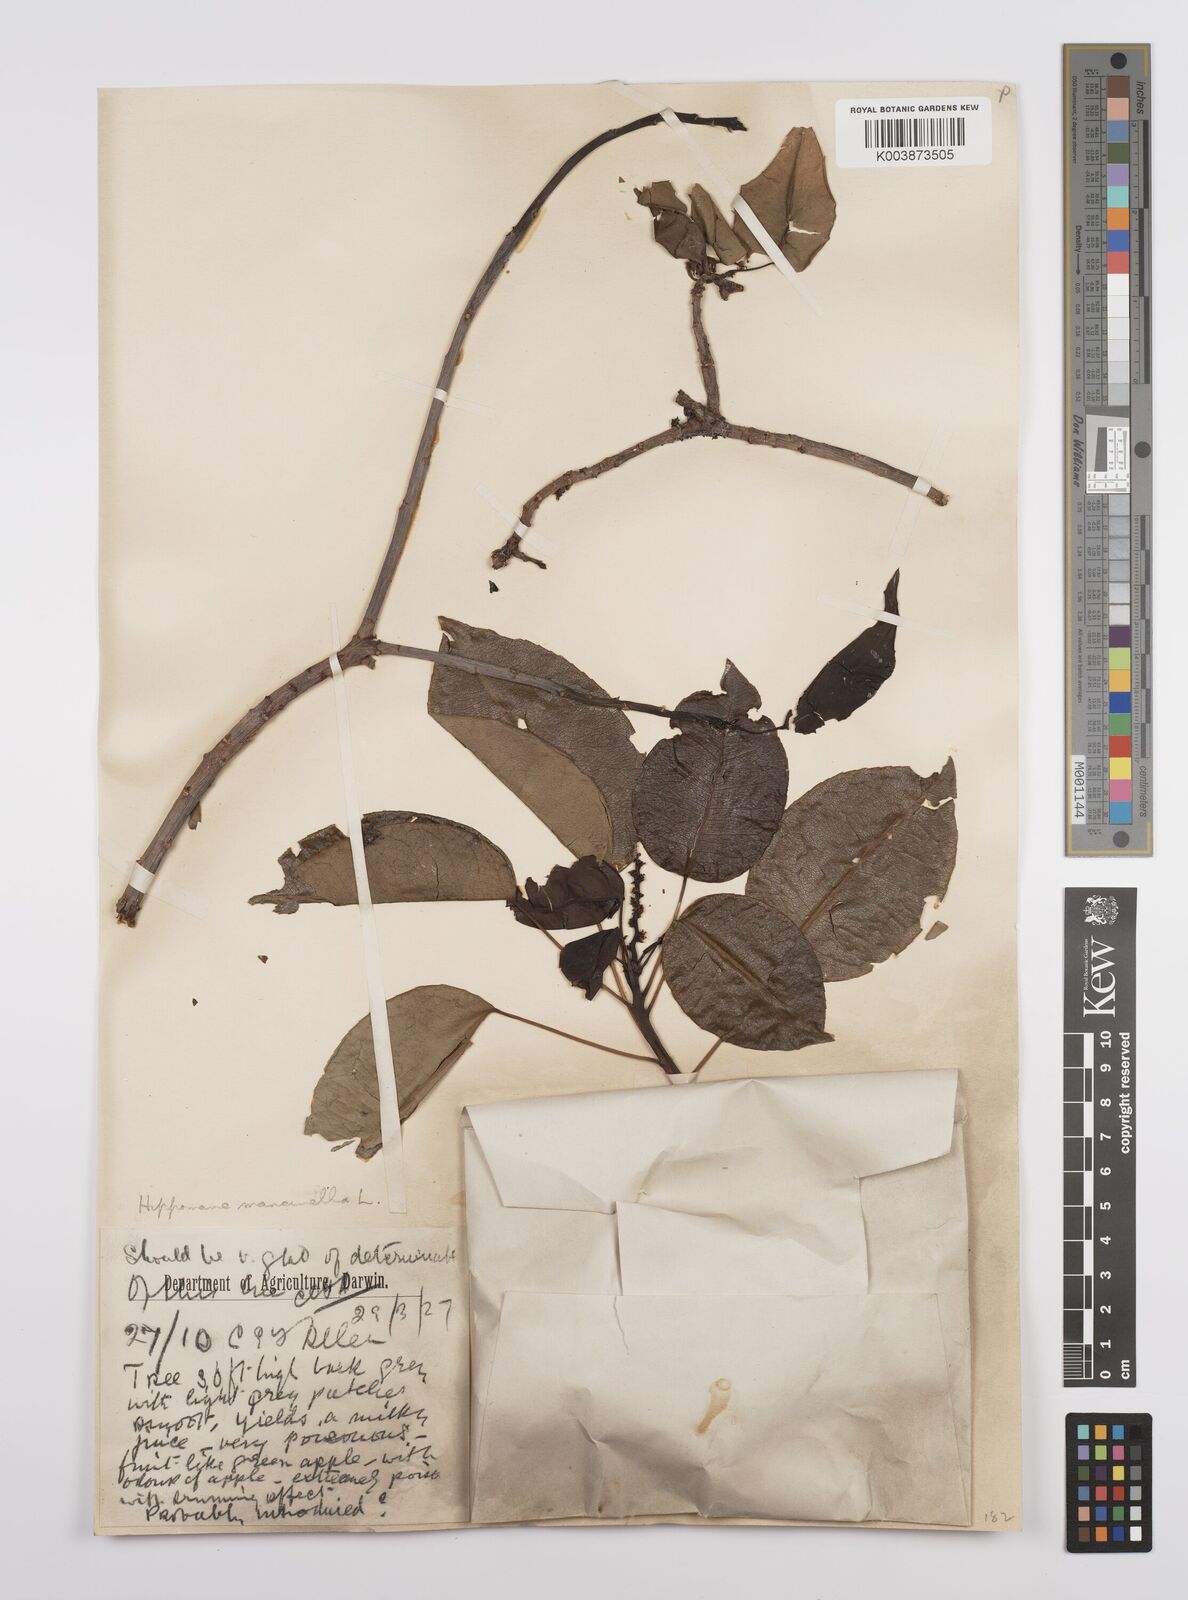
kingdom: Plantae
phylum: Tracheophyta
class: Magnoliopsida
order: Malpighiales
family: Euphorbiaceae
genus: Hippomane
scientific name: Hippomane
